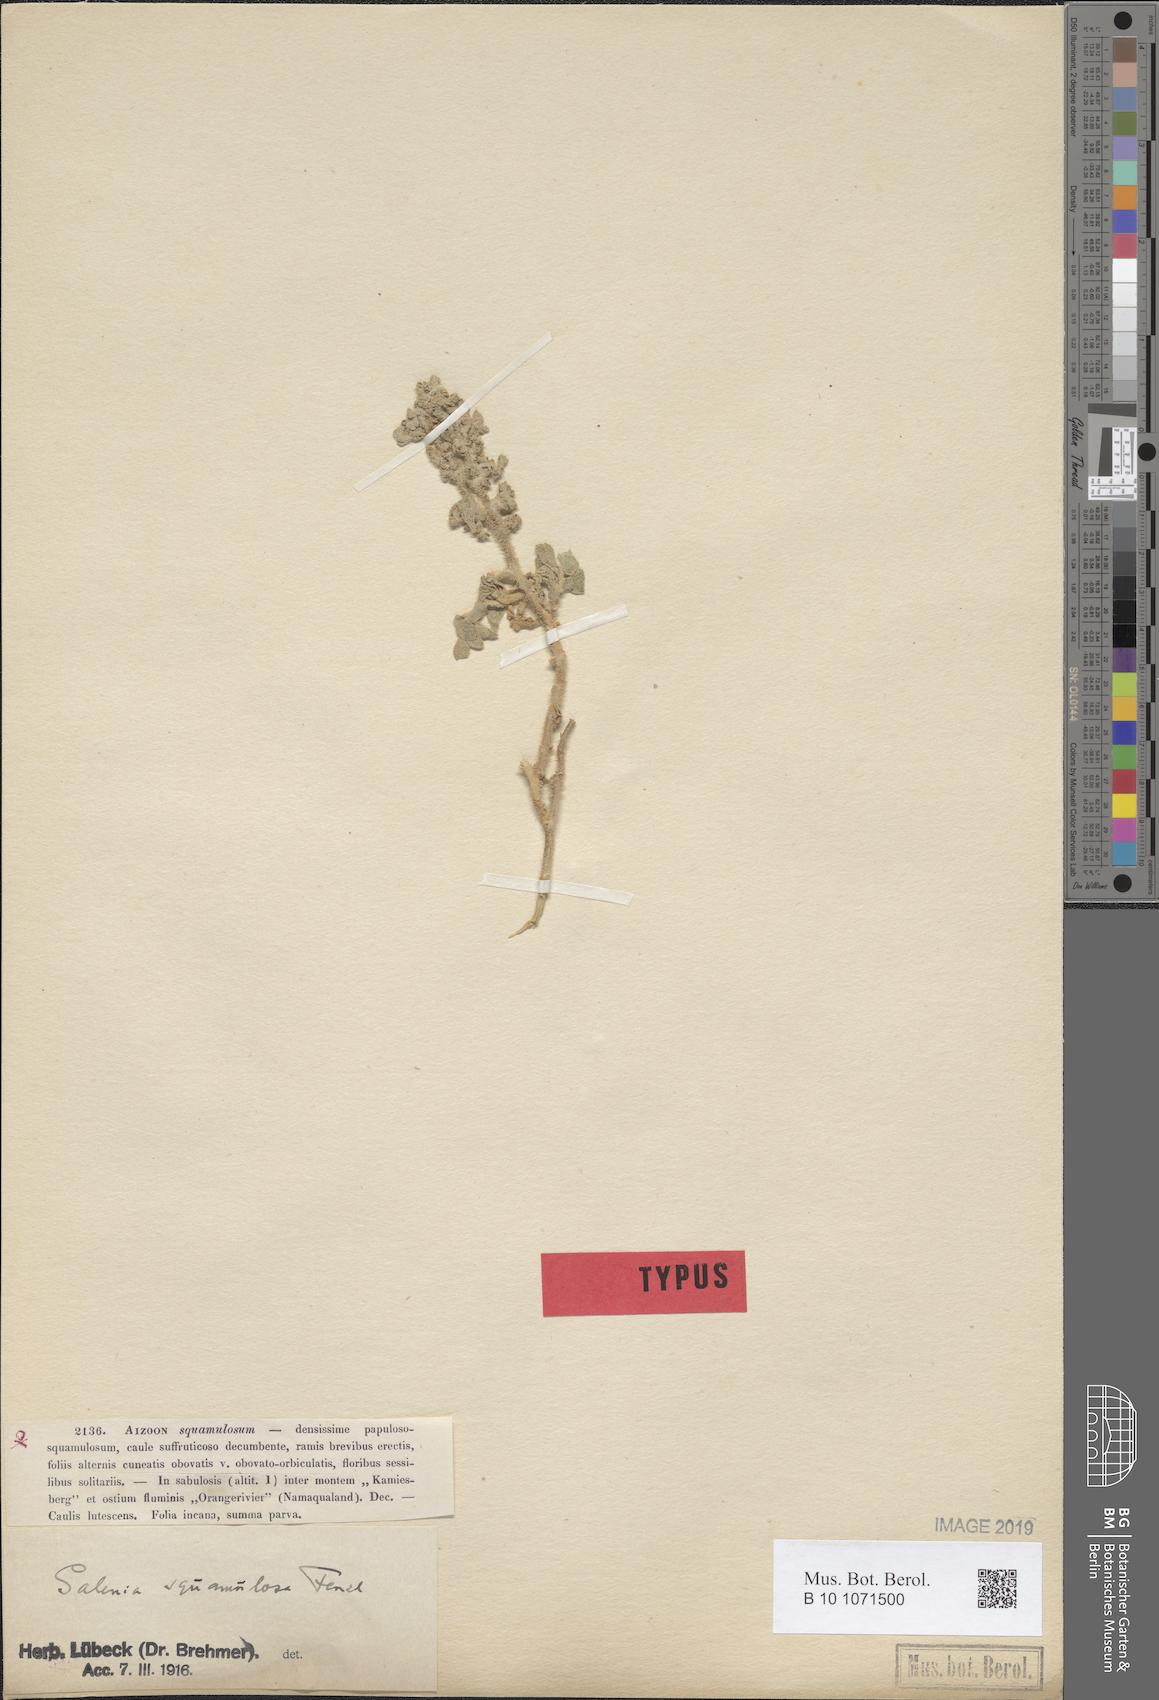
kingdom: Plantae
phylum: Tracheophyta
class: Magnoliopsida
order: Caryophyllales
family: Aizoaceae
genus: Aizoon
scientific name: Aizoon papulosum
